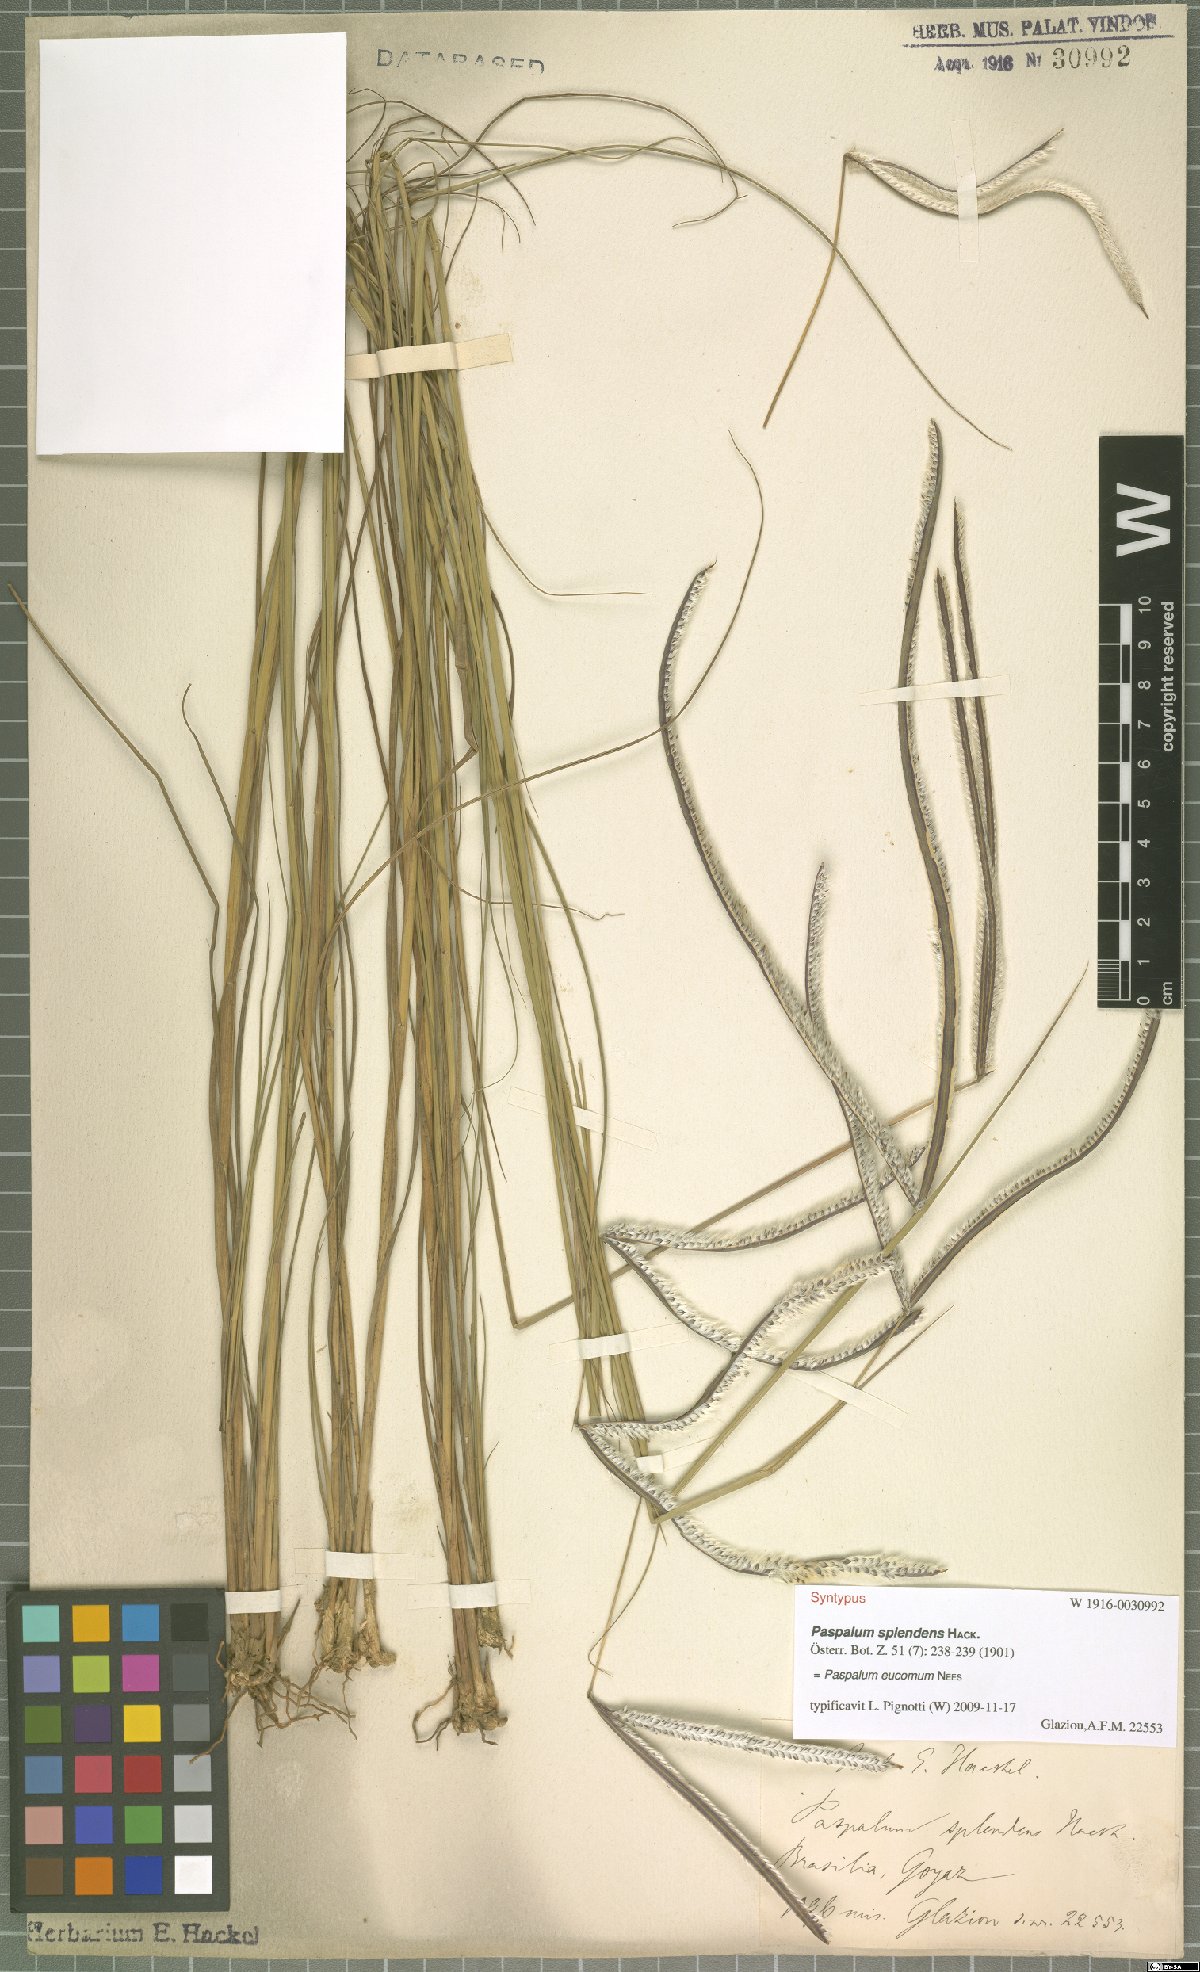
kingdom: Plantae
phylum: Tracheophyta
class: Liliopsida
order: Poales
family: Poaceae
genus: Paspalum
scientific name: Paspalum eucomum
